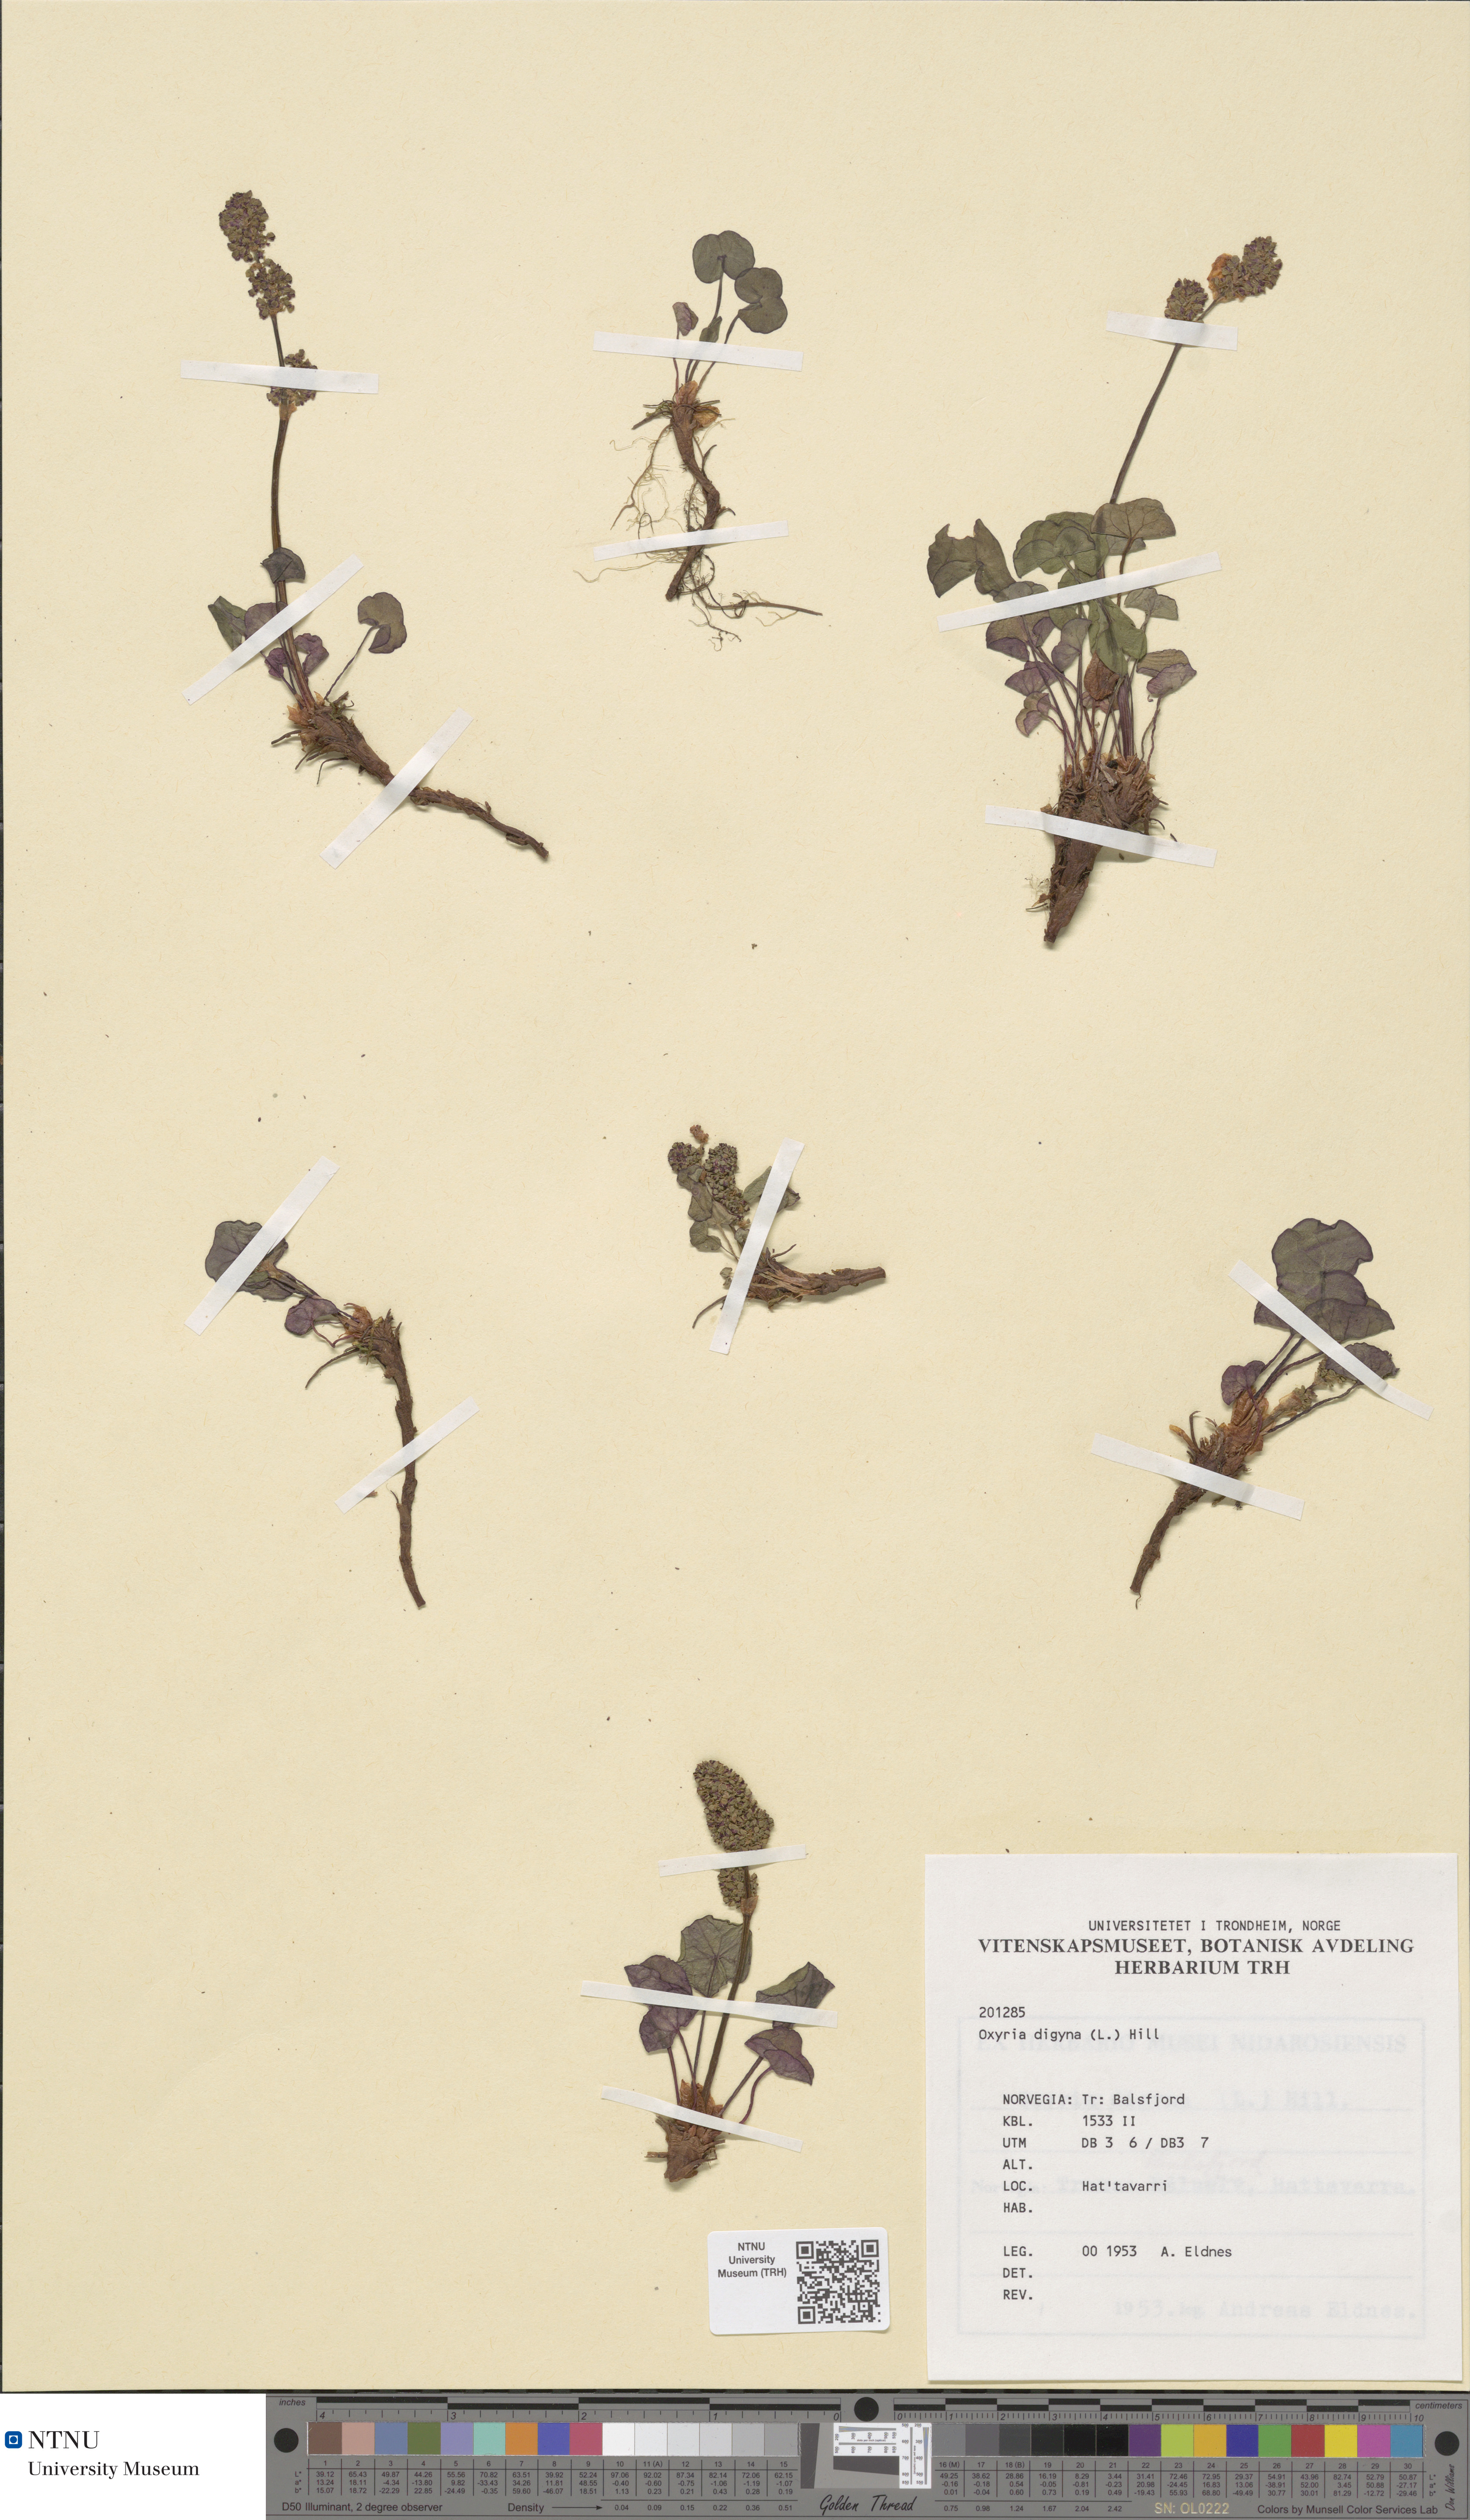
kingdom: Plantae
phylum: Tracheophyta
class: Magnoliopsida
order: Caryophyllales
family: Polygonaceae
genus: Oxyria
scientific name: Oxyria digyna
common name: Alpine mountain-sorrel
